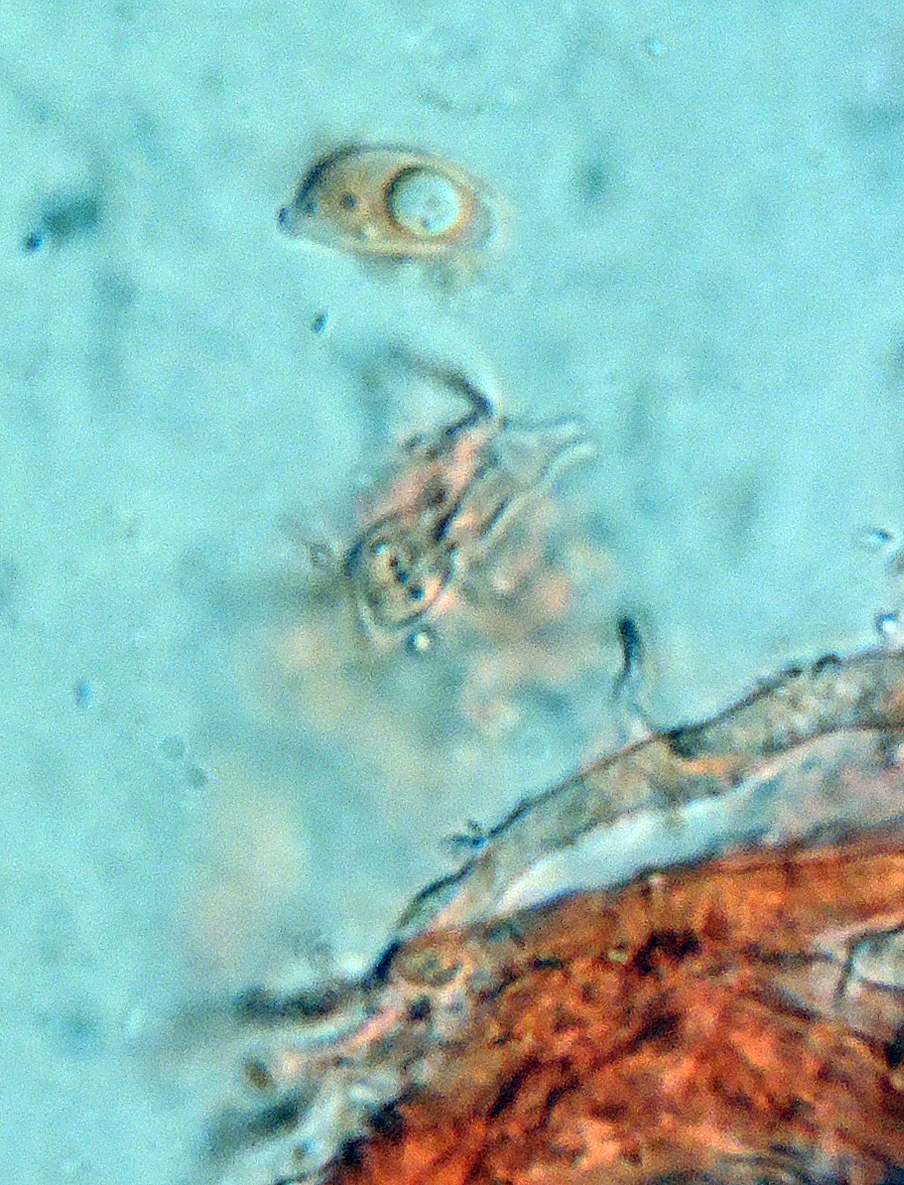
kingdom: Fungi
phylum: Basidiomycota
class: Agaricomycetes
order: Agaricales
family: Niaceae
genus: Flagelloscypha
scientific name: Flagelloscypha
